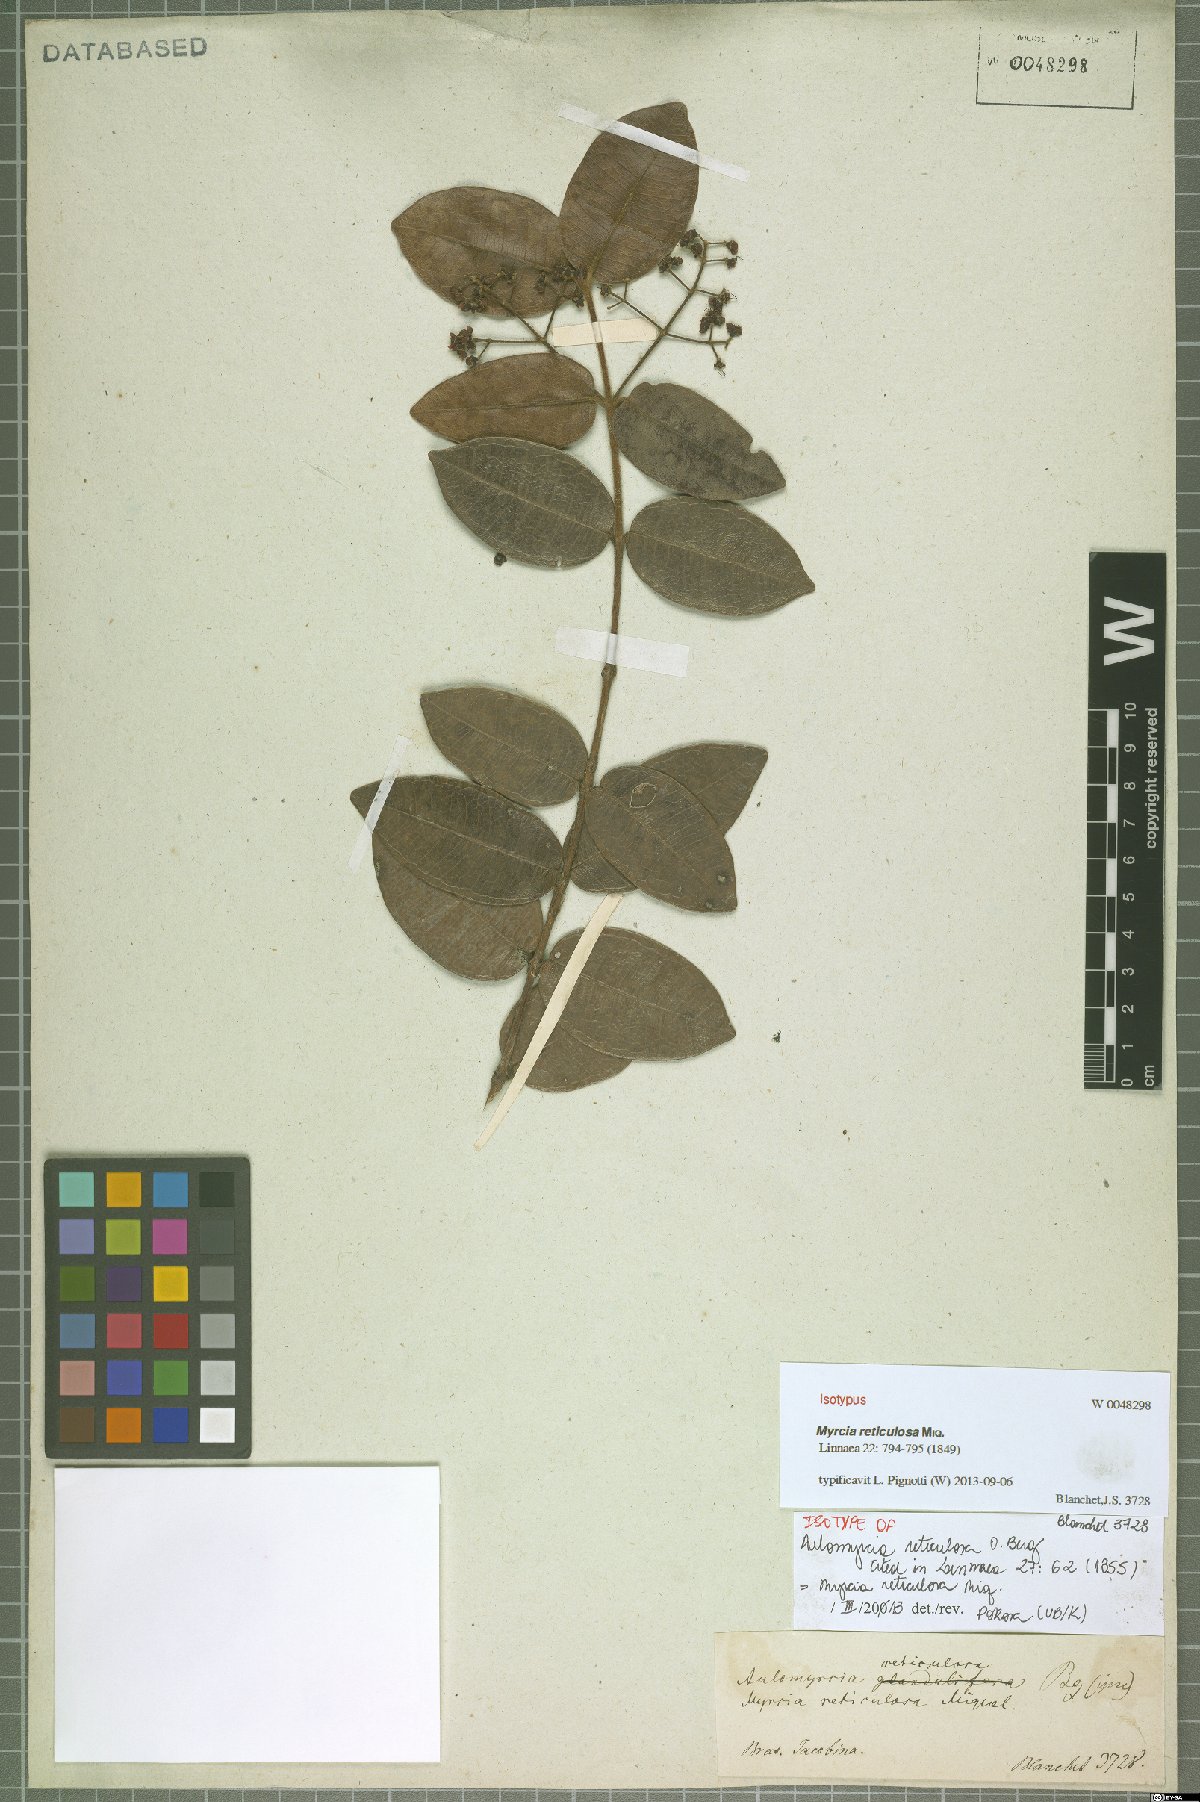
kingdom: Plantae
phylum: Tracheophyta
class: Magnoliopsida
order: Myrtales
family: Myrtaceae
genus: Myrcia
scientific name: Myrcia reticulosa
